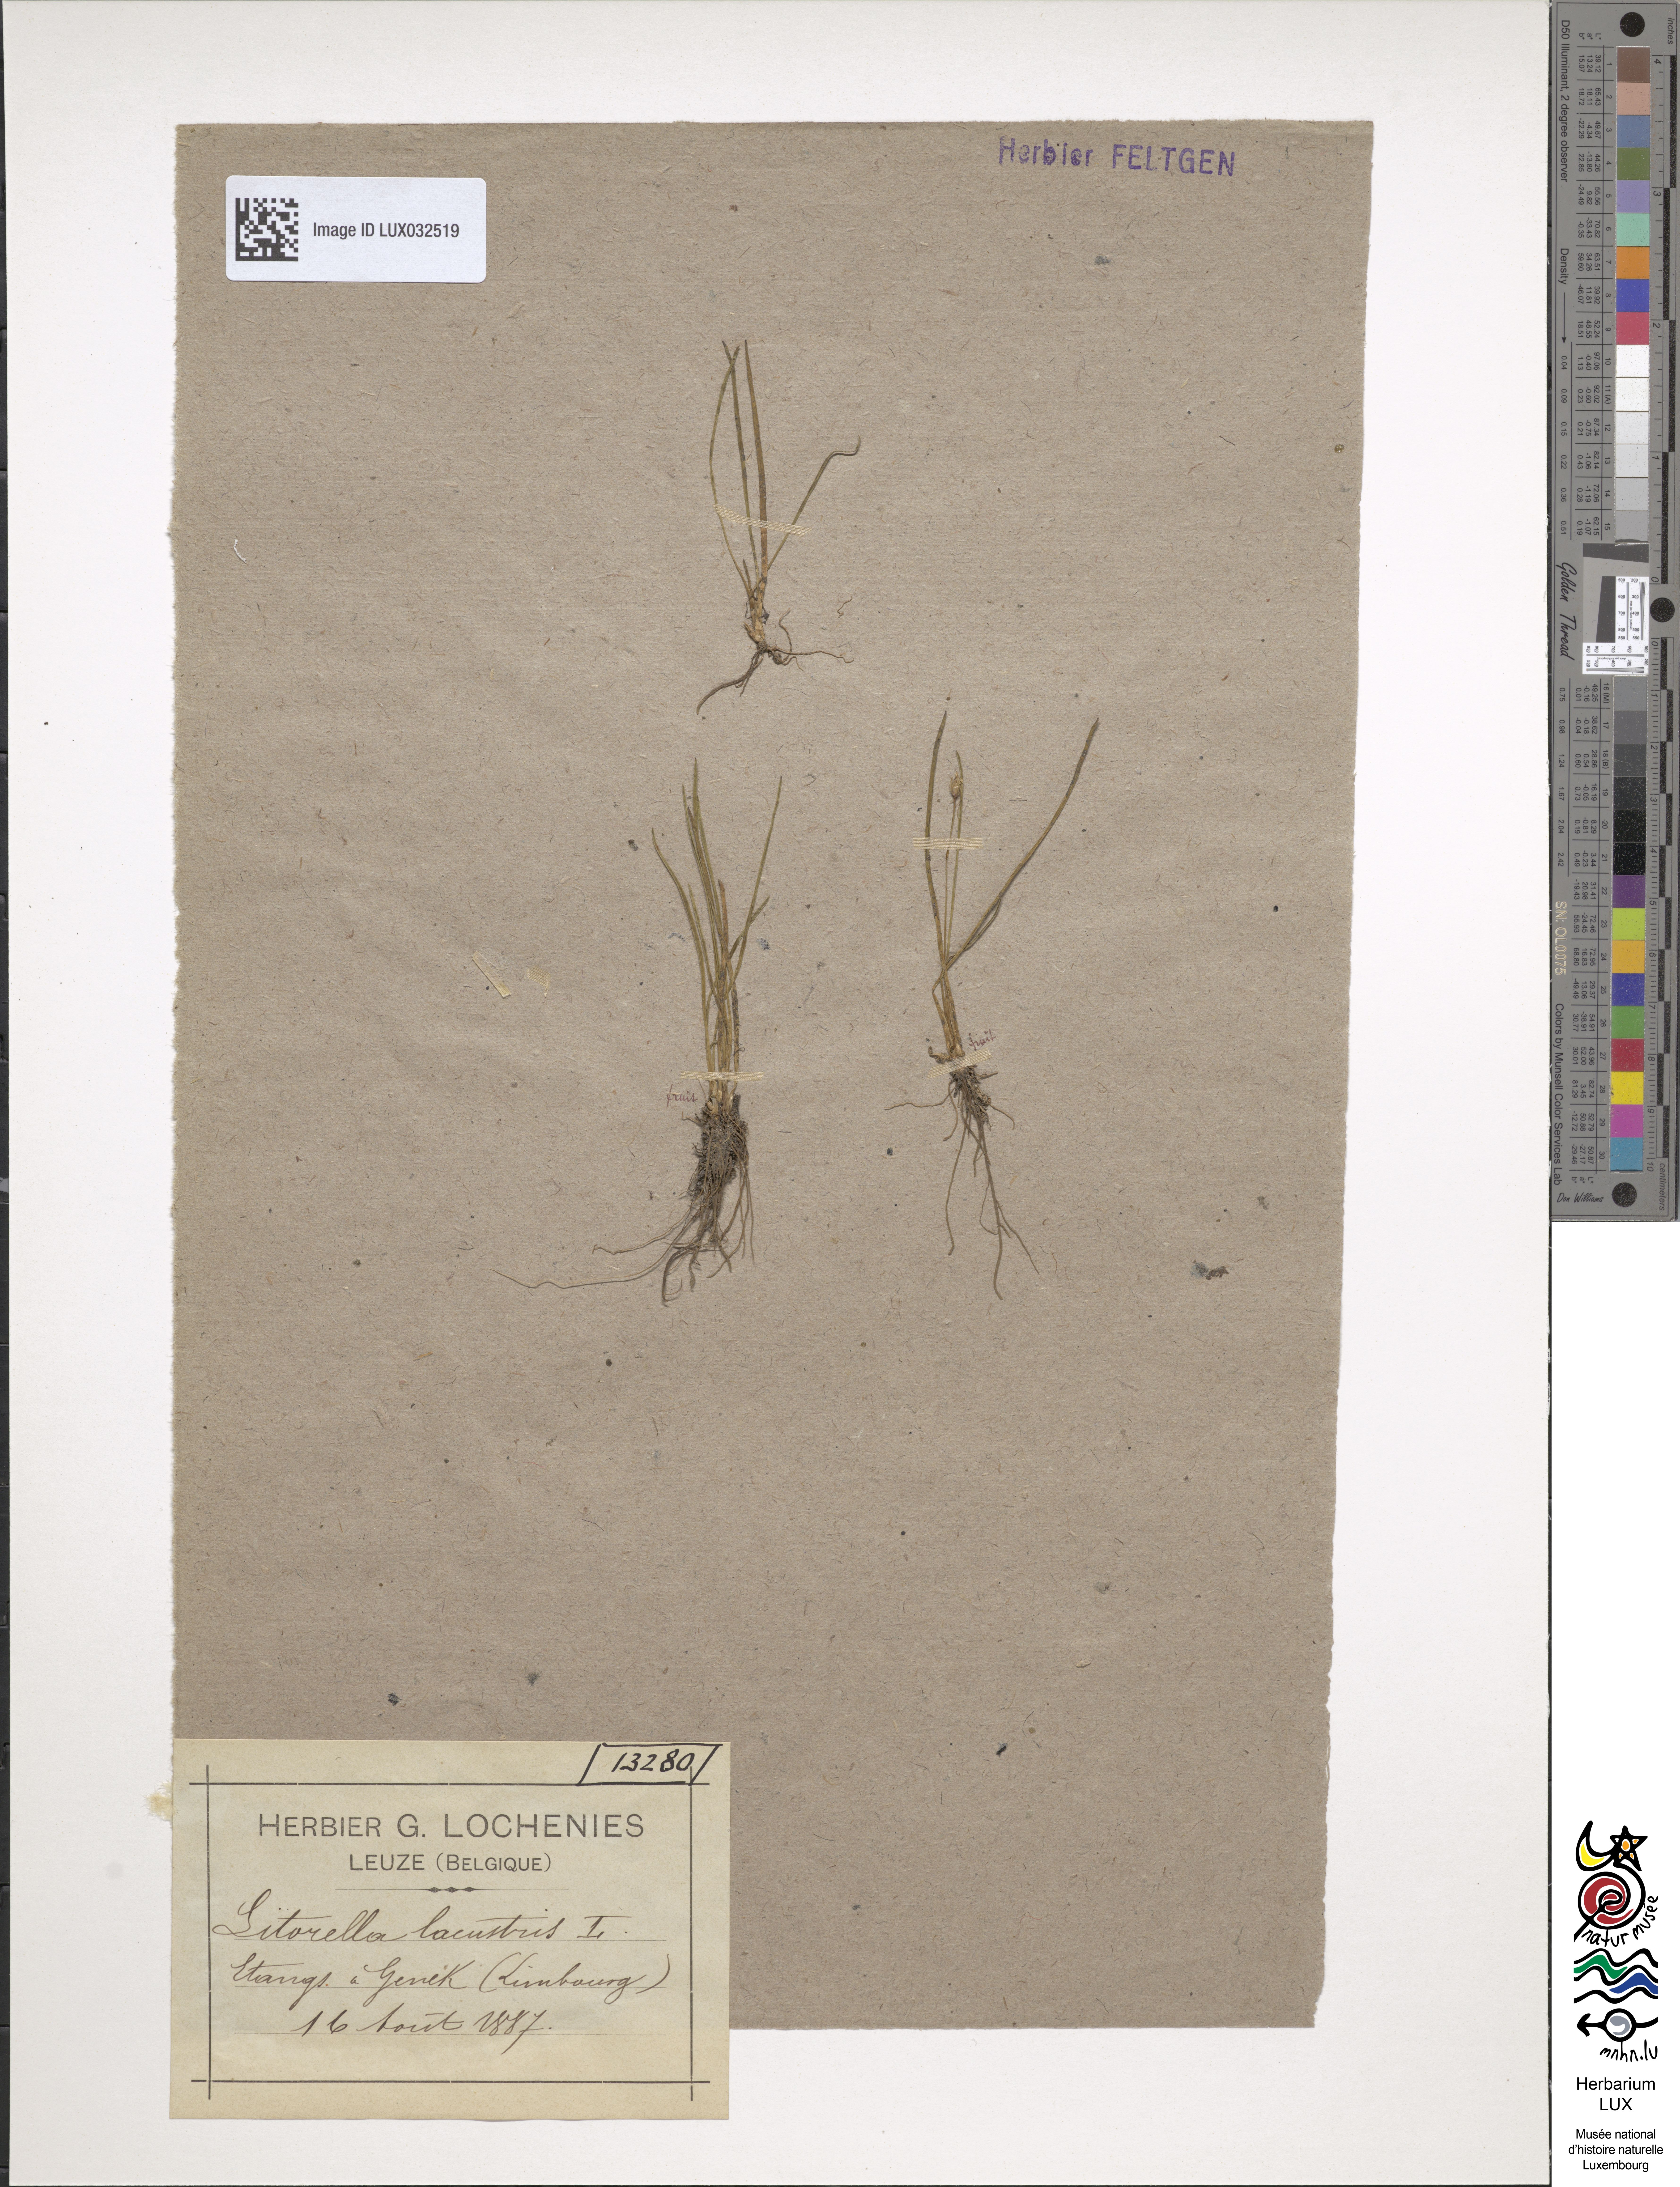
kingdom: Plantae
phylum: Tracheophyta
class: Magnoliopsida
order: Lamiales
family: Plantaginaceae
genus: Littorella
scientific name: Littorella uniflora
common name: Shoreweed
